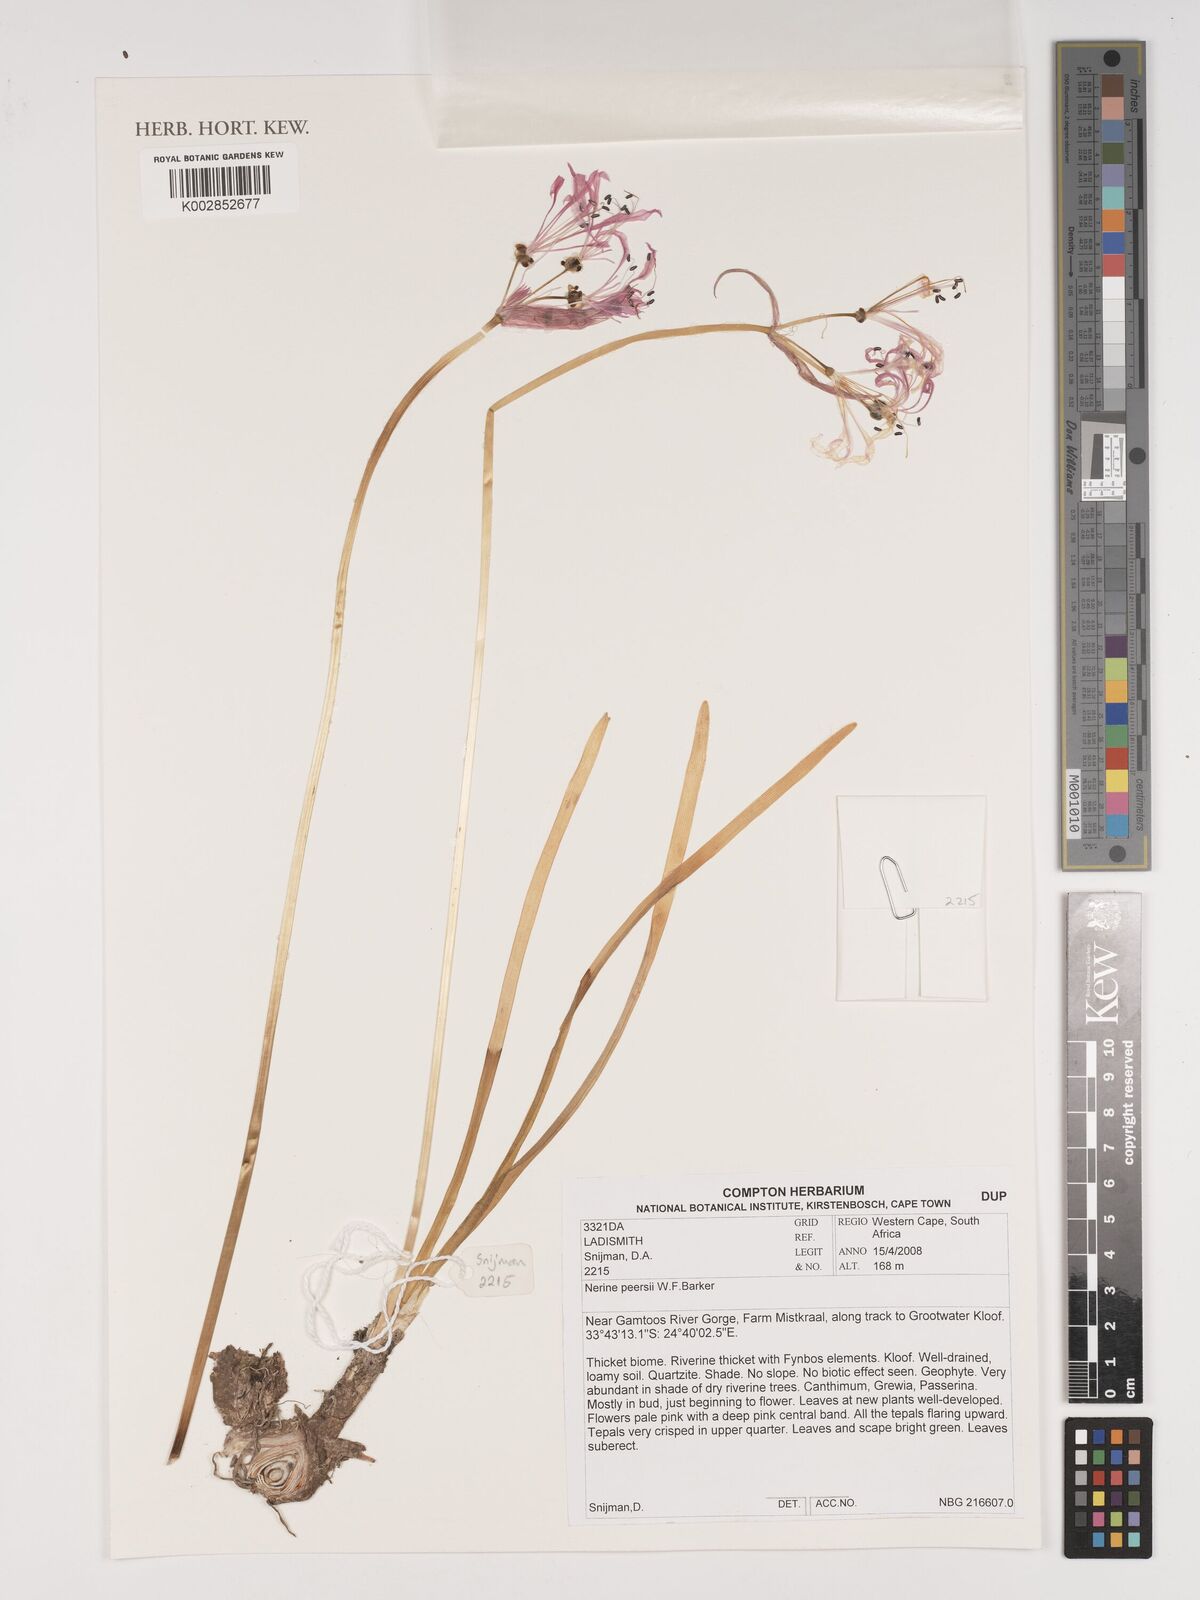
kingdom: Plantae
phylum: Tracheophyta
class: Liliopsida
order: Asparagales
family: Amaryllidaceae
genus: Nerine
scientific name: Nerine humilis
